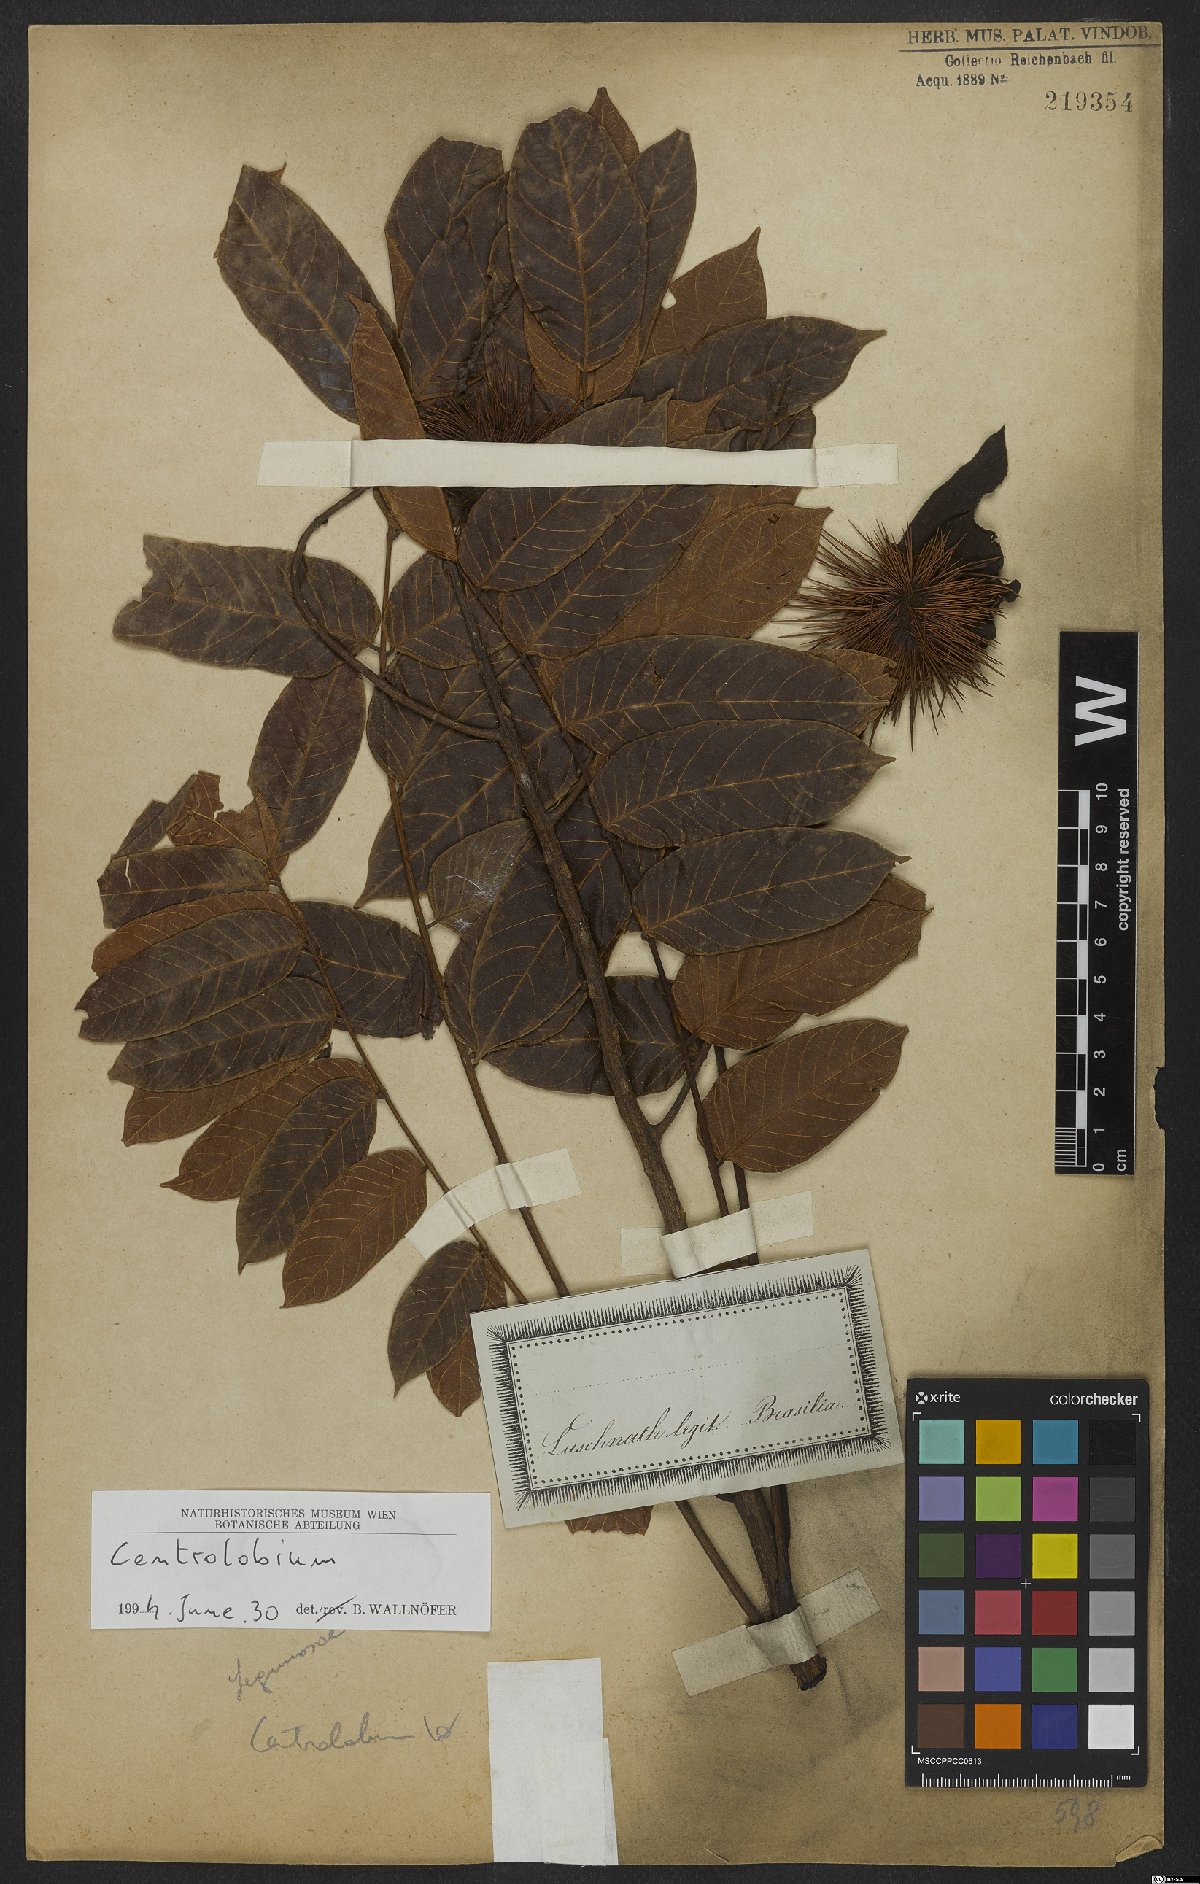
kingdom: Plantae
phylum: Tracheophyta
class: Magnoliopsida
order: Fabales
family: Fabaceae
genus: Centrolobium
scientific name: Centrolobium
